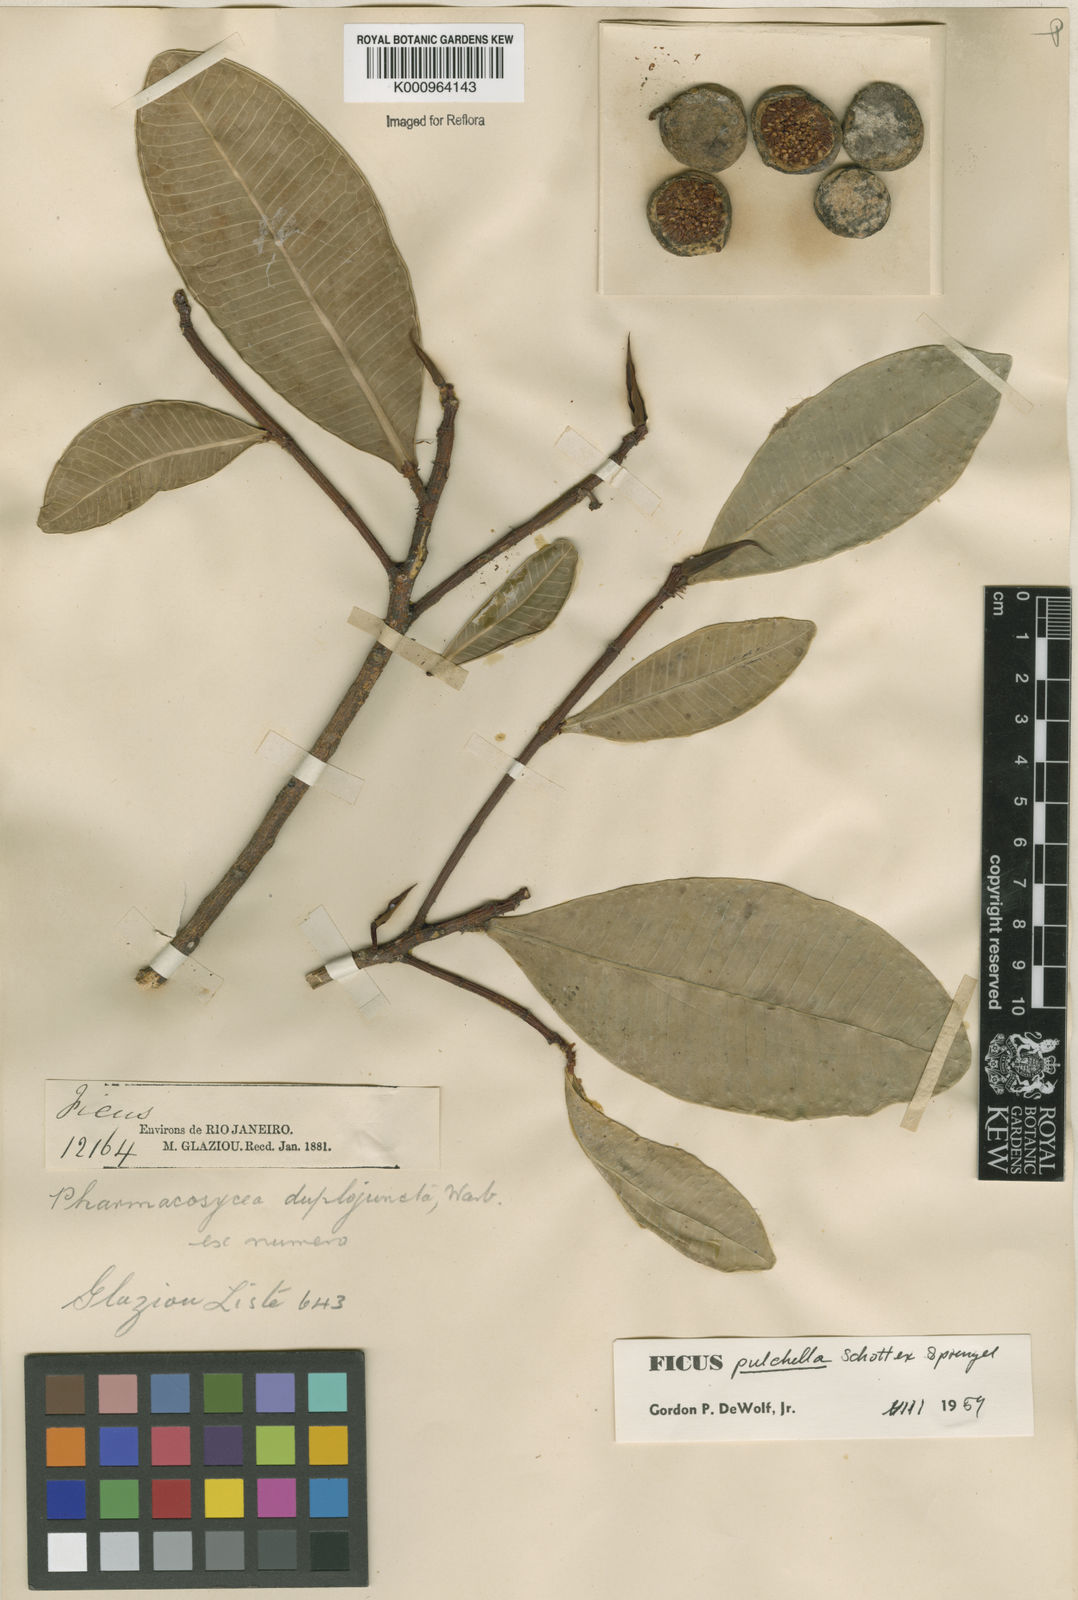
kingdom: Plantae
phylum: Tracheophyta
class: Magnoliopsida
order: Rosales
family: Moraceae
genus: Ficus
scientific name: Ficus pulchella
